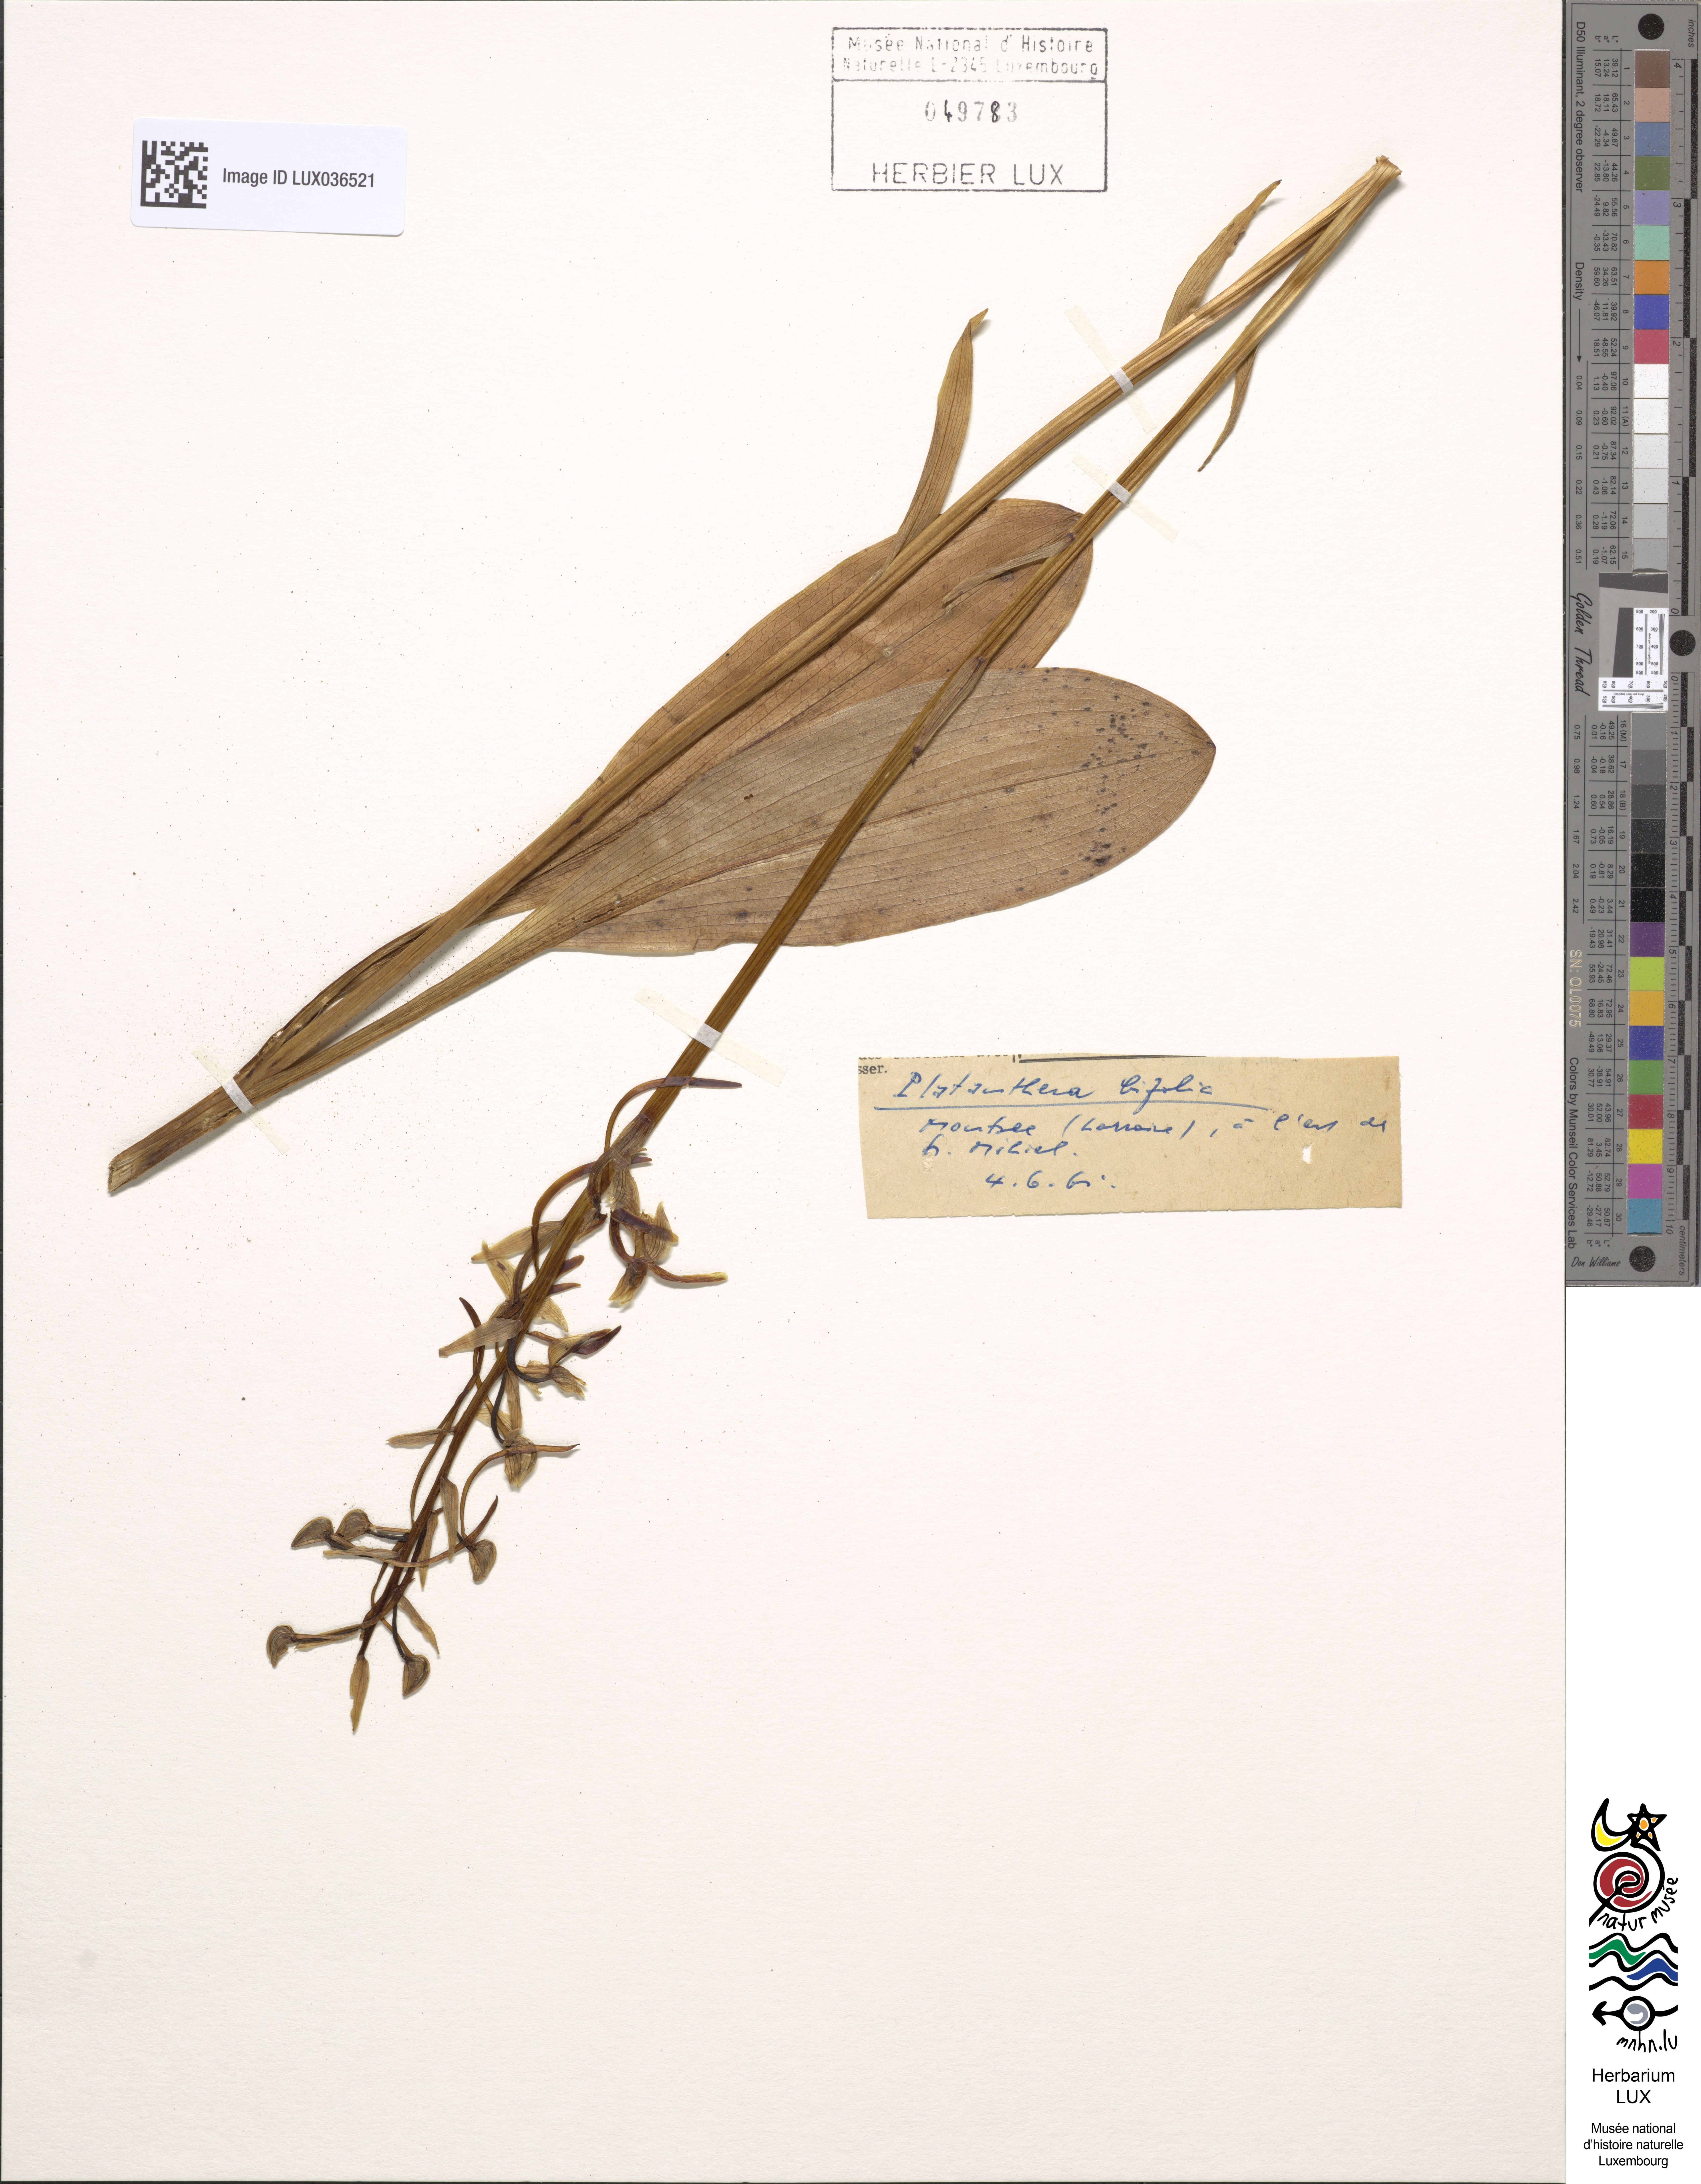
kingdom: Plantae
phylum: Tracheophyta
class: Liliopsida
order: Asparagales
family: Orchidaceae
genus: Platanthera
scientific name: Platanthera bifolia
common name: Lesser butterfly-orchid
